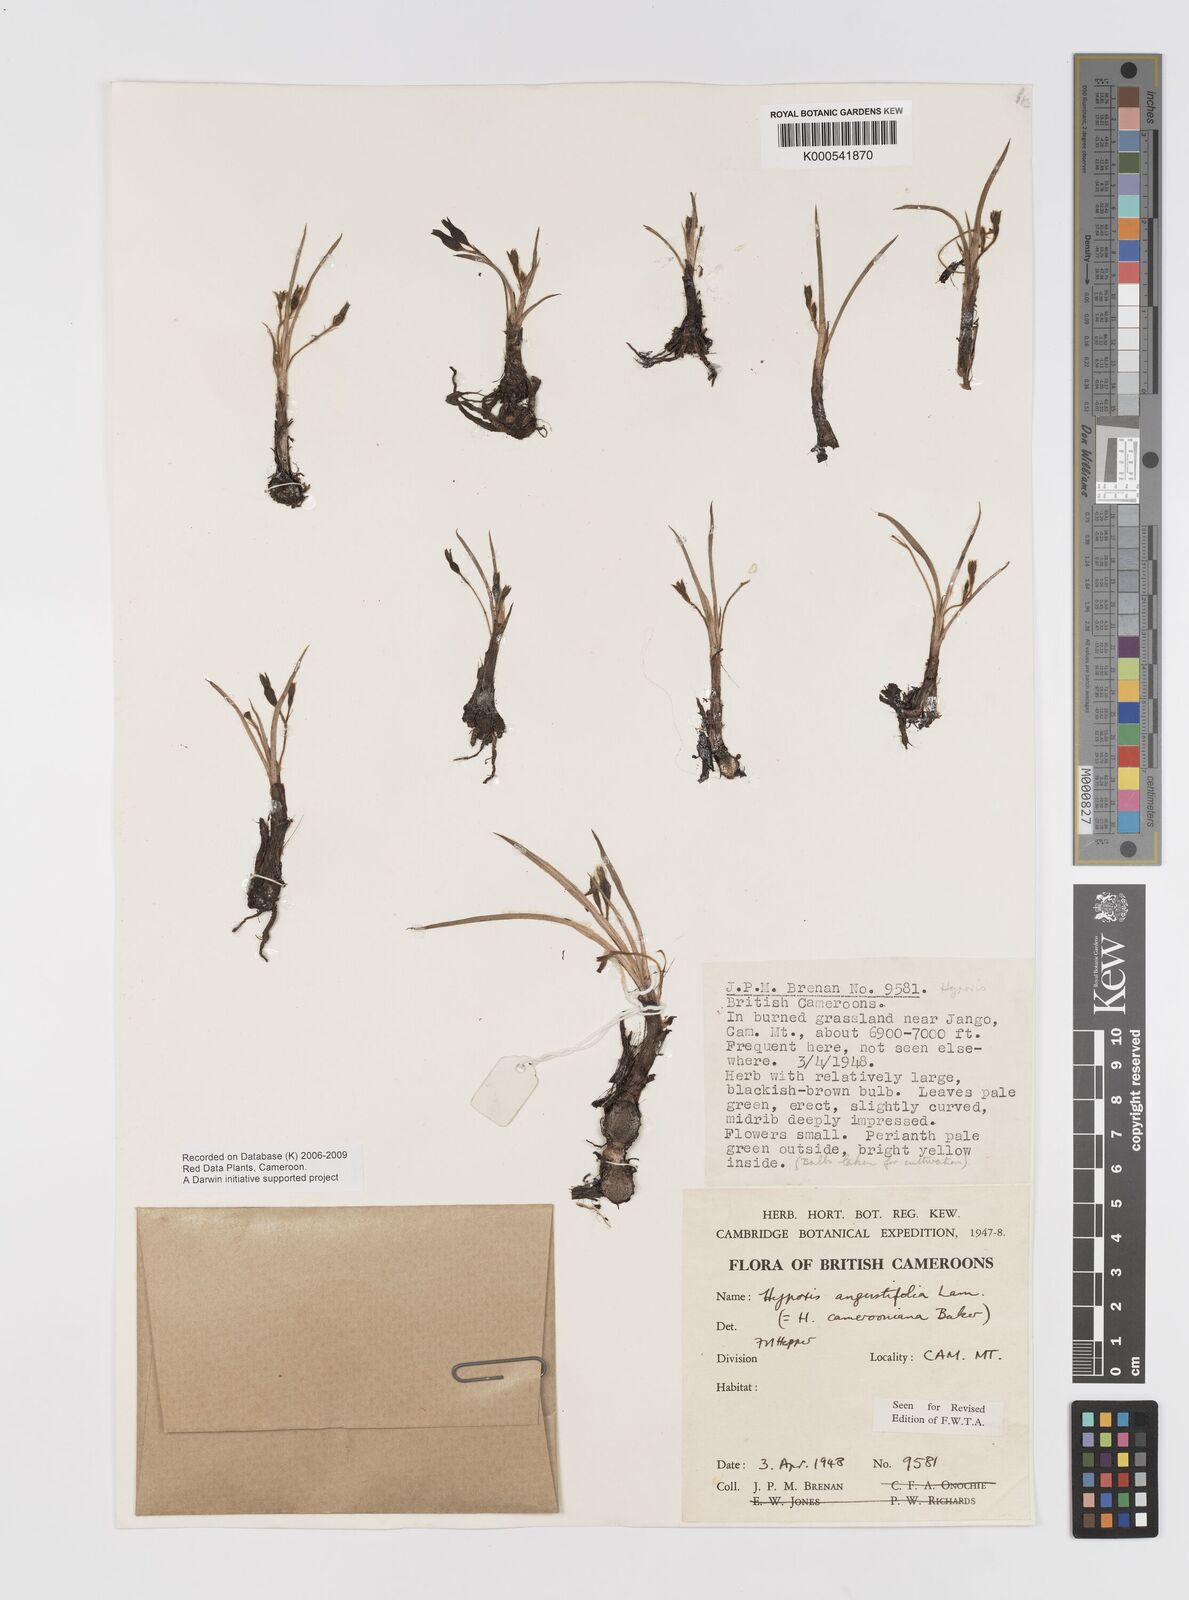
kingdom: Plantae
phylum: Tracheophyta
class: Liliopsida
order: Asparagales
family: Hypoxidaceae
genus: Hypoxis
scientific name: Hypoxis camerooniana
